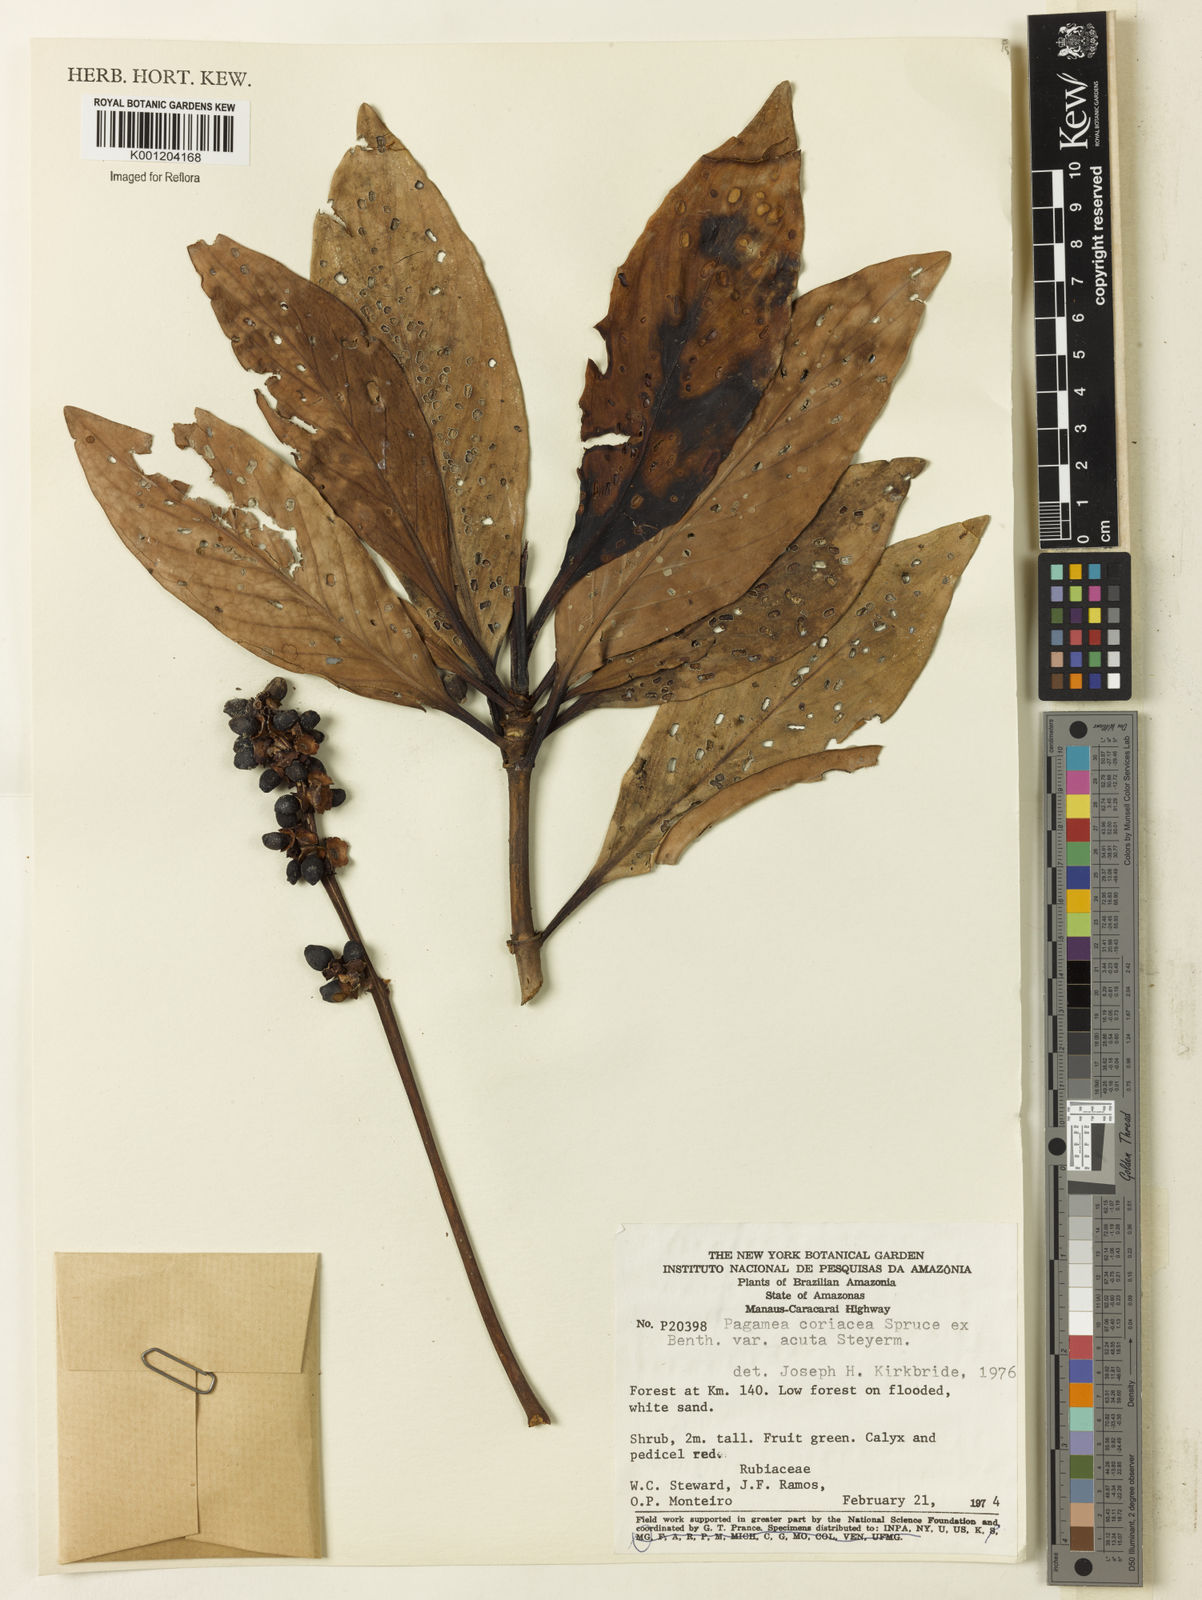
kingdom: Plantae
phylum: Tracheophyta
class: Magnoliopsida
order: Gentianales
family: Rubiaceae
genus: Pagamea
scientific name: Pagamea coriacea
